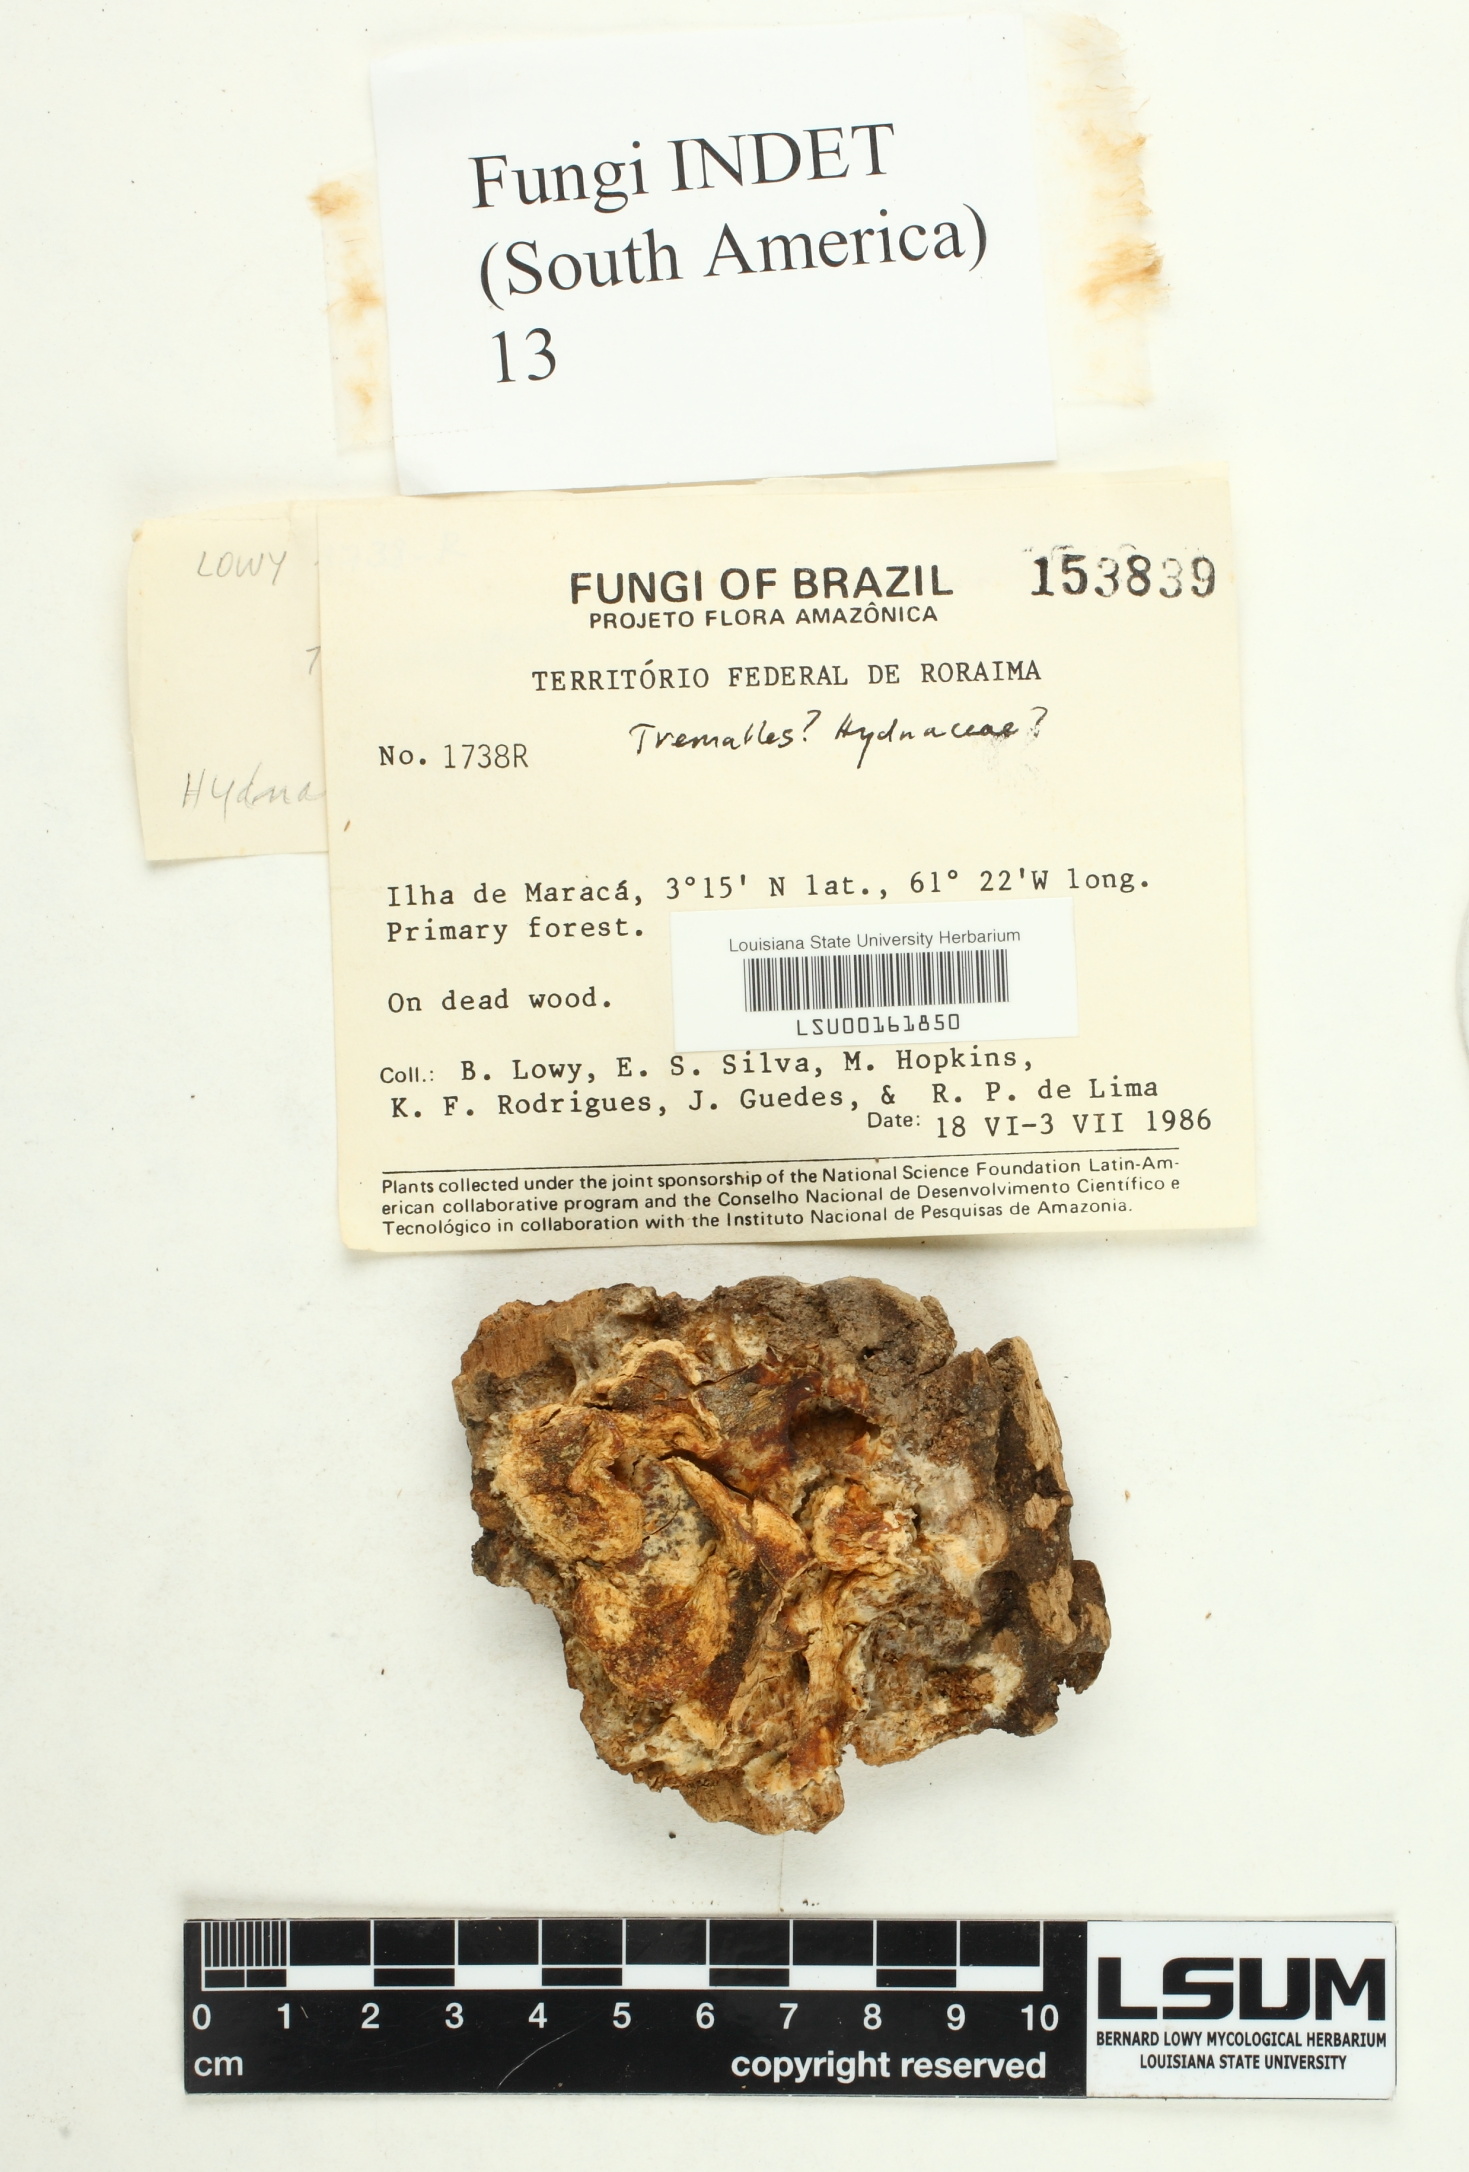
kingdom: Fungi
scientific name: Fungi
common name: Fungi
